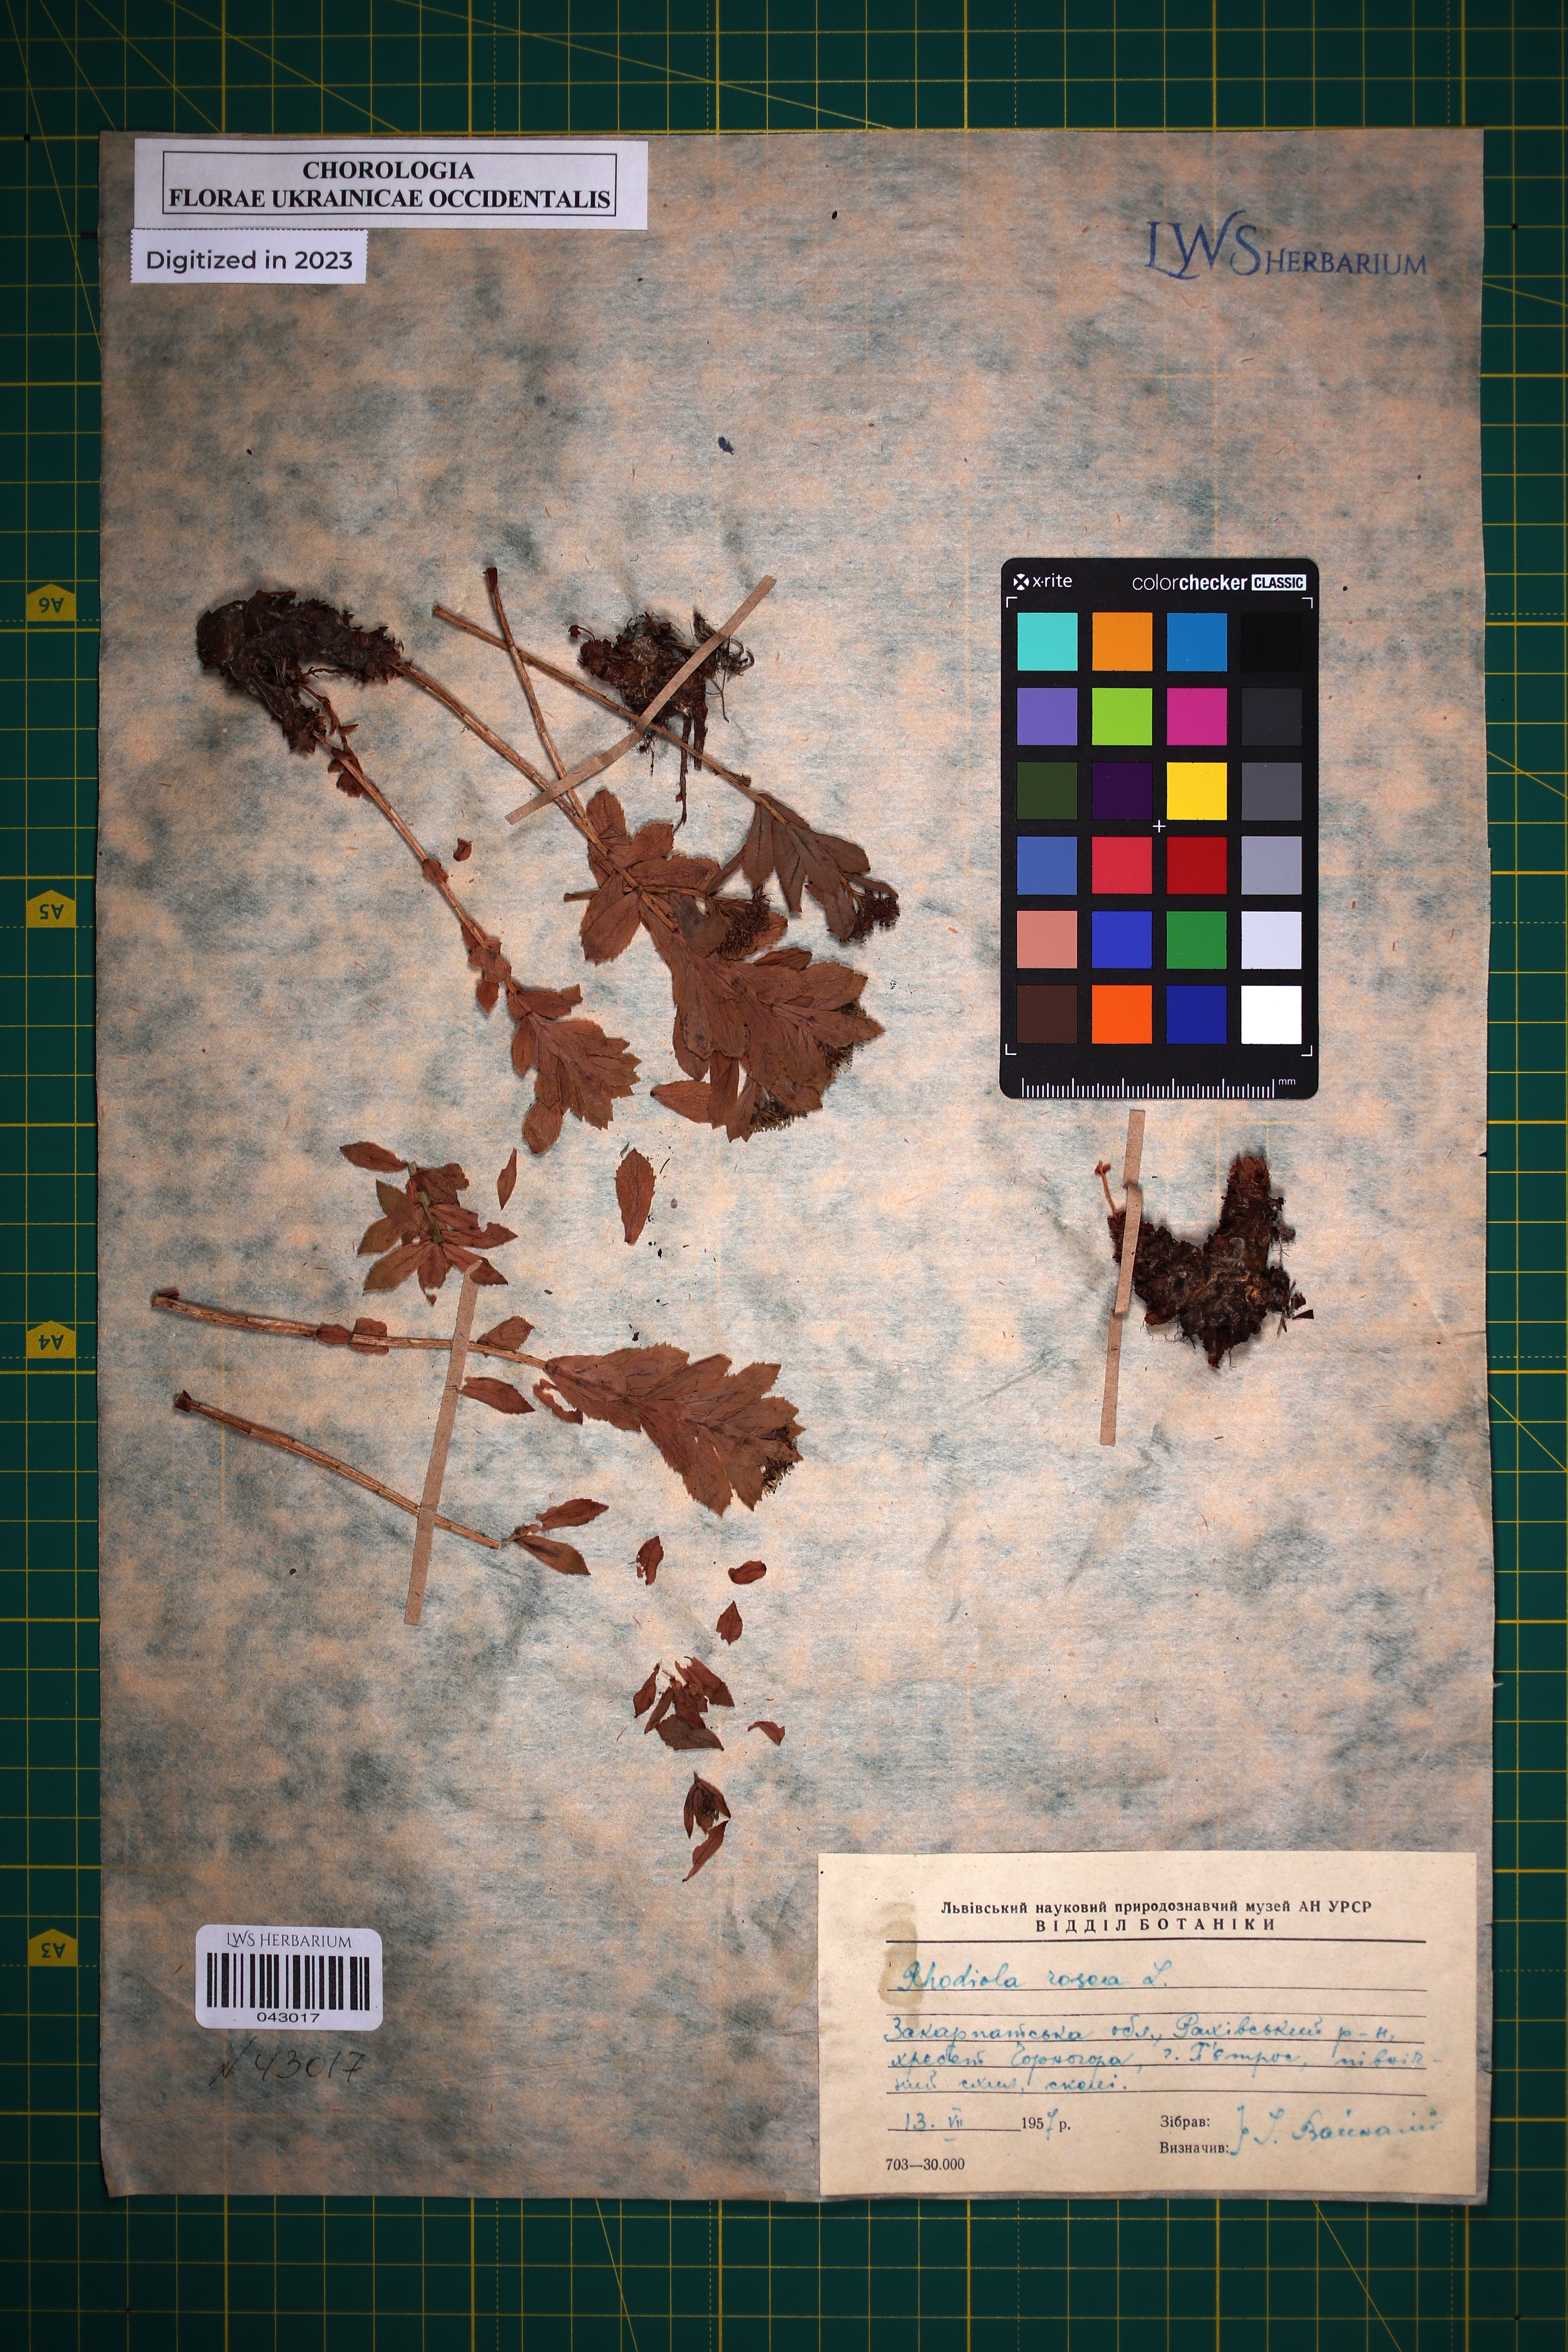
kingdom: Plantae
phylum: Tracheophyta
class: Magnoliopsida
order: Saxifragales
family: Crassulaceae
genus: Rhodiola
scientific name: Rhodiola rosea
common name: Roseroot
